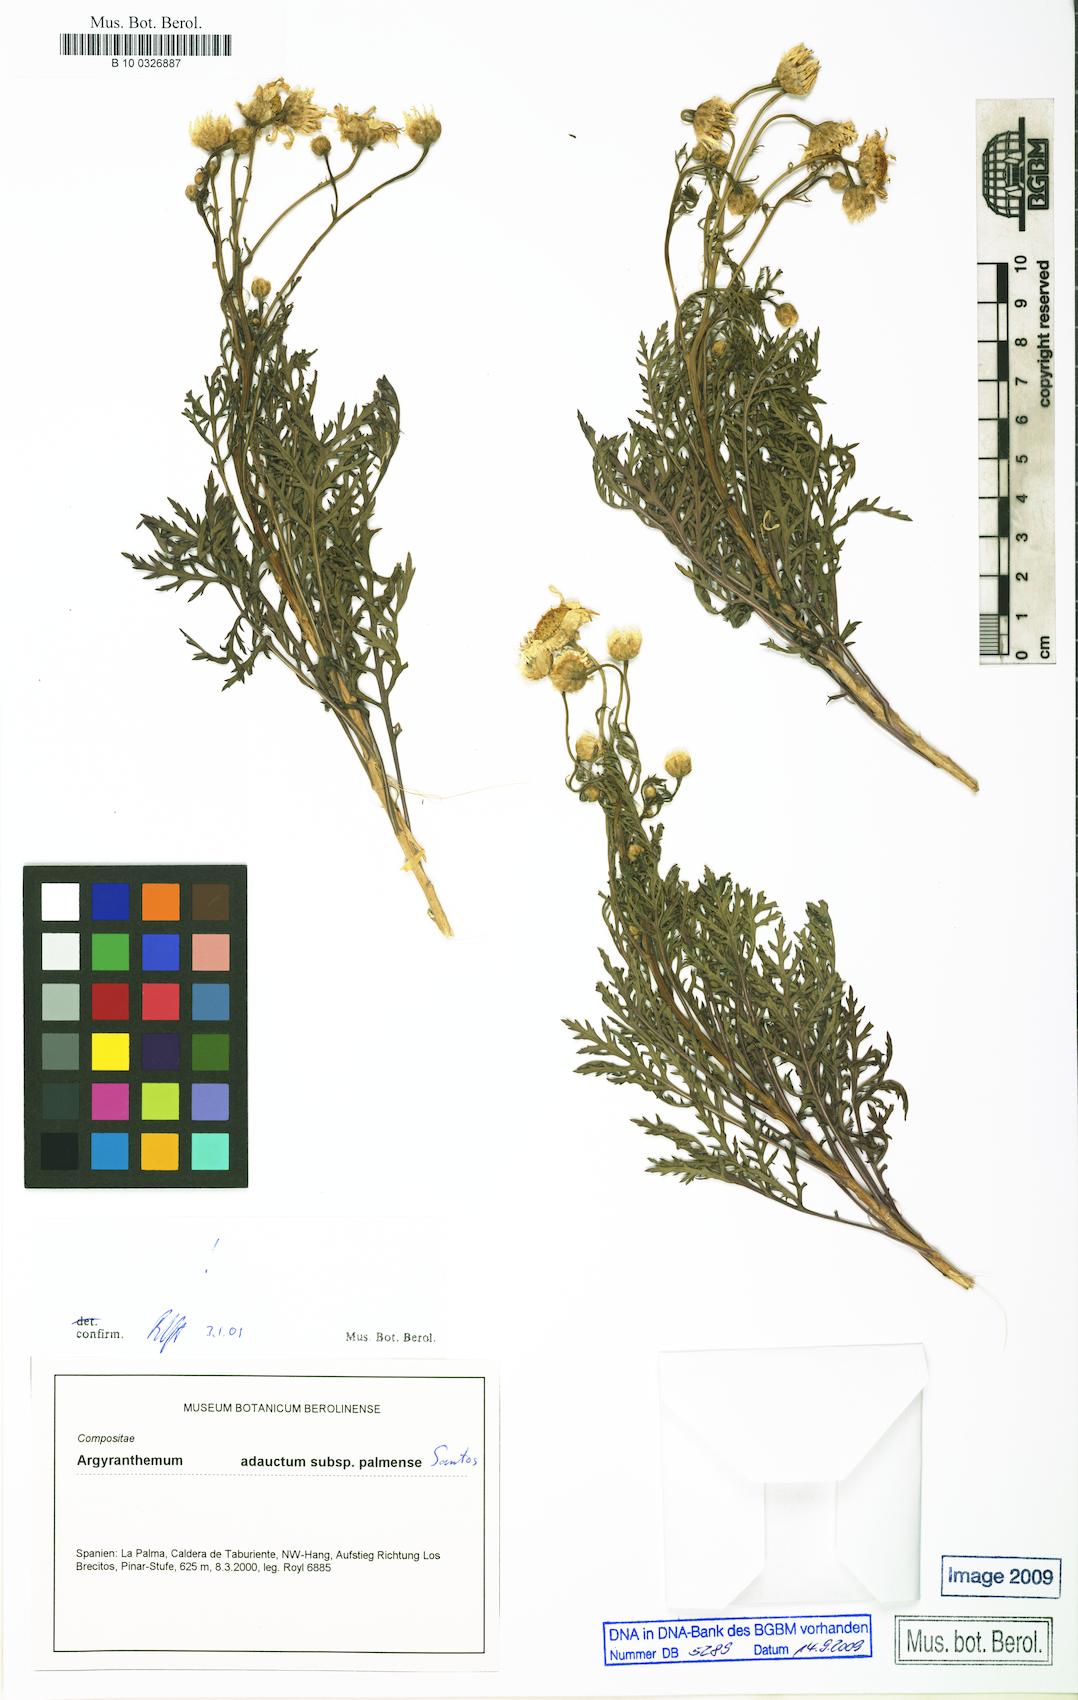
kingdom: Plantae
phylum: Tracheophyta
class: Magnoliopsida
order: Asterales
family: Asteraceae
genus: Argyranthemum
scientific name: Argyranthemum adauctum
